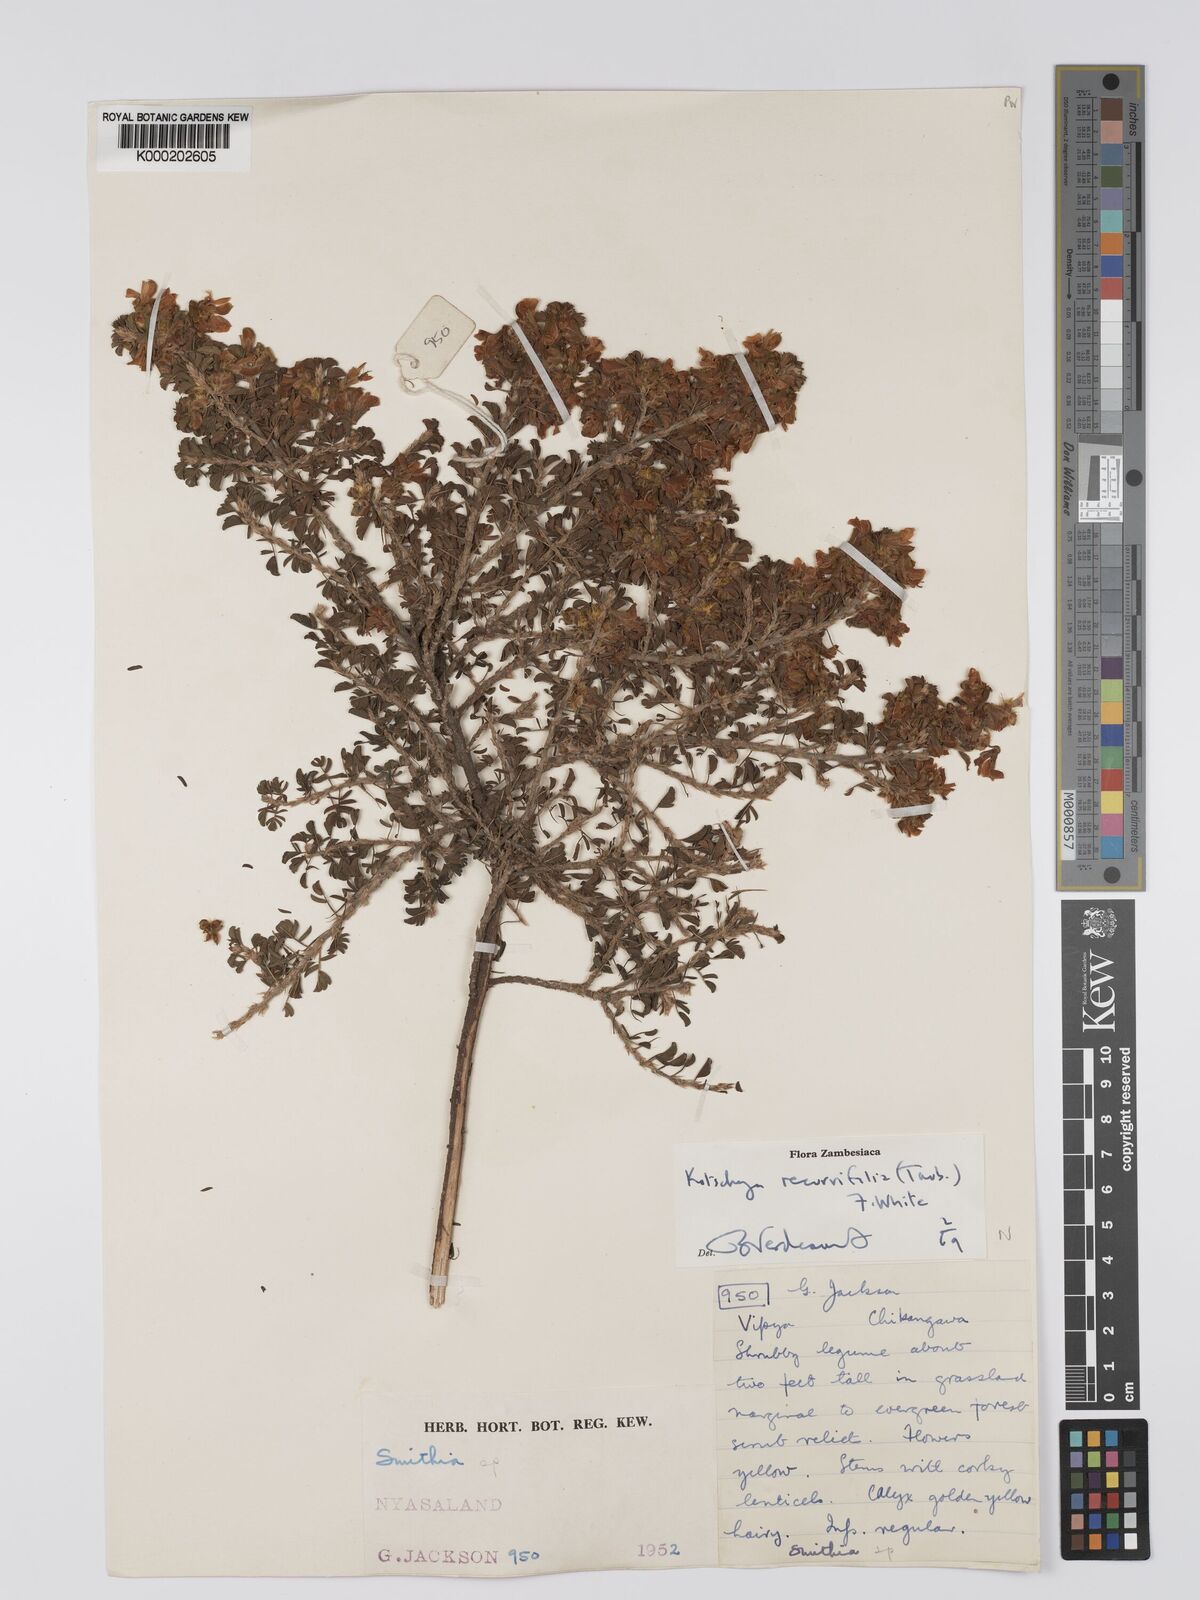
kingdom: Plantae
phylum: Tracheophyta
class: Magnoliopsida
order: Fabales
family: Fabaceae
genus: Kotschya
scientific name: Kotschya recurvifolia
